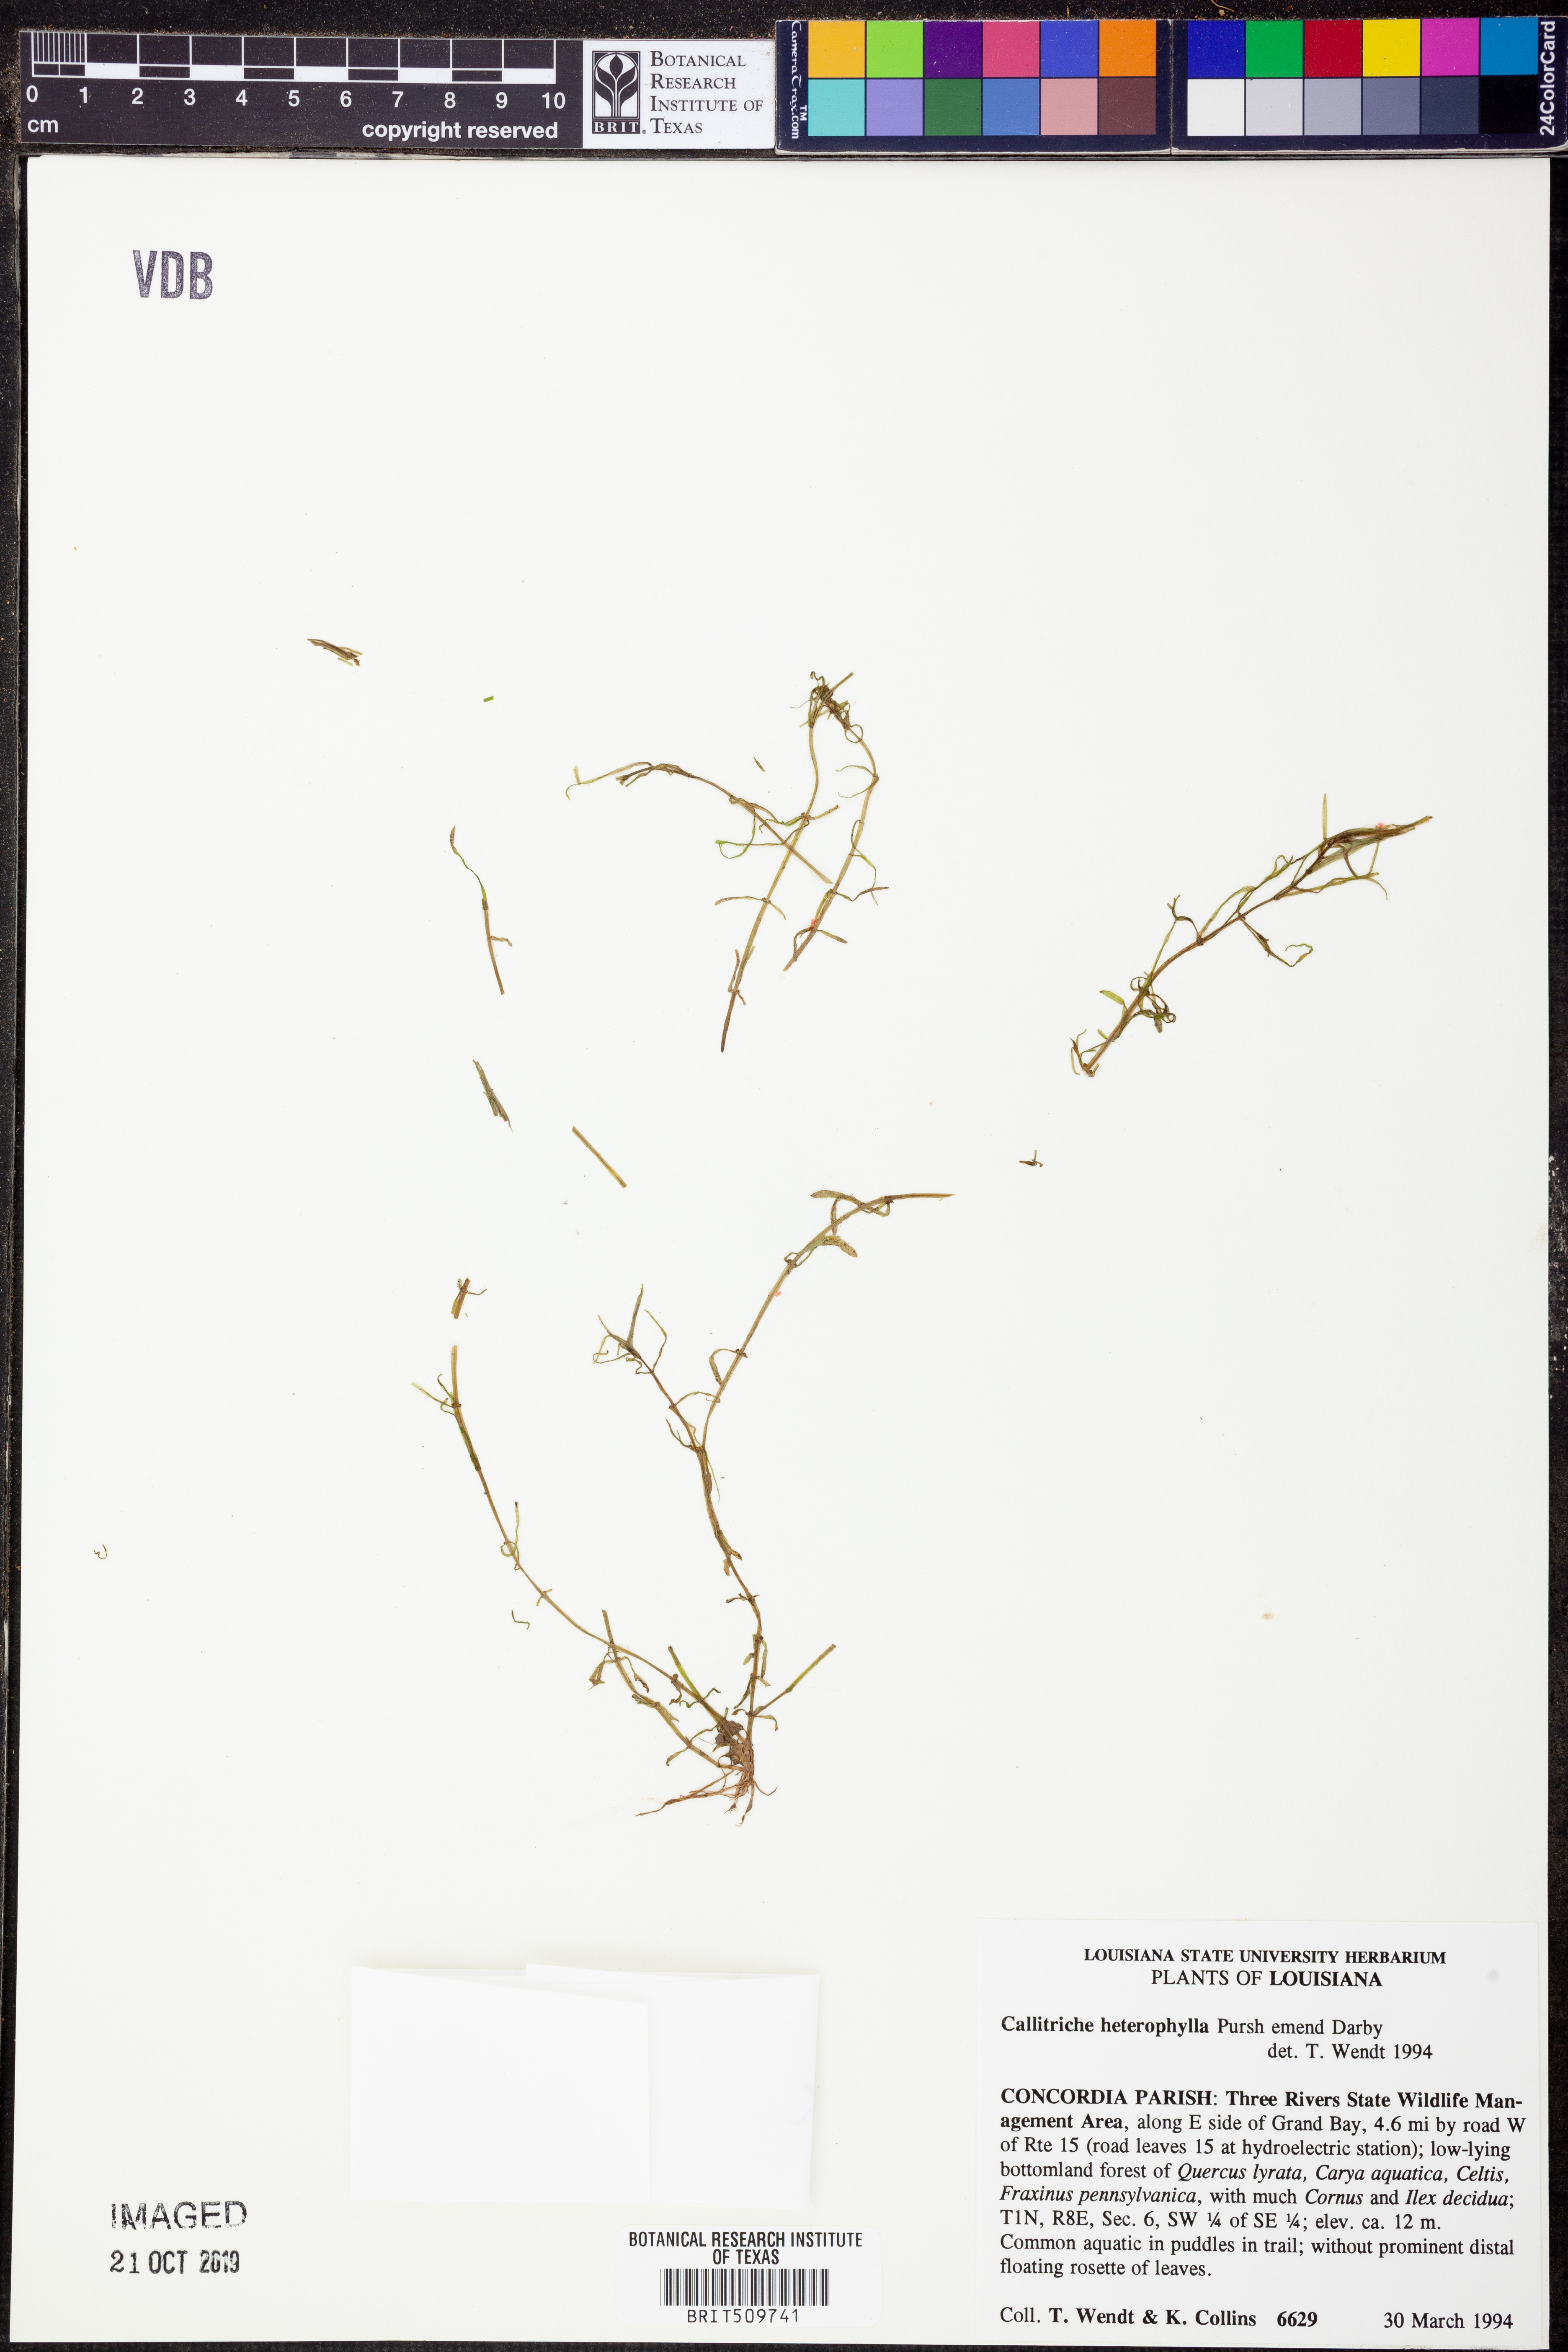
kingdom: Plantae
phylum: Tracheophyta
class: Magnoliopsida
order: Lamiales
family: Plantaginaceae
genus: Callitriche
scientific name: Callitriche heterophylla
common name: Two-headed water-starwort
